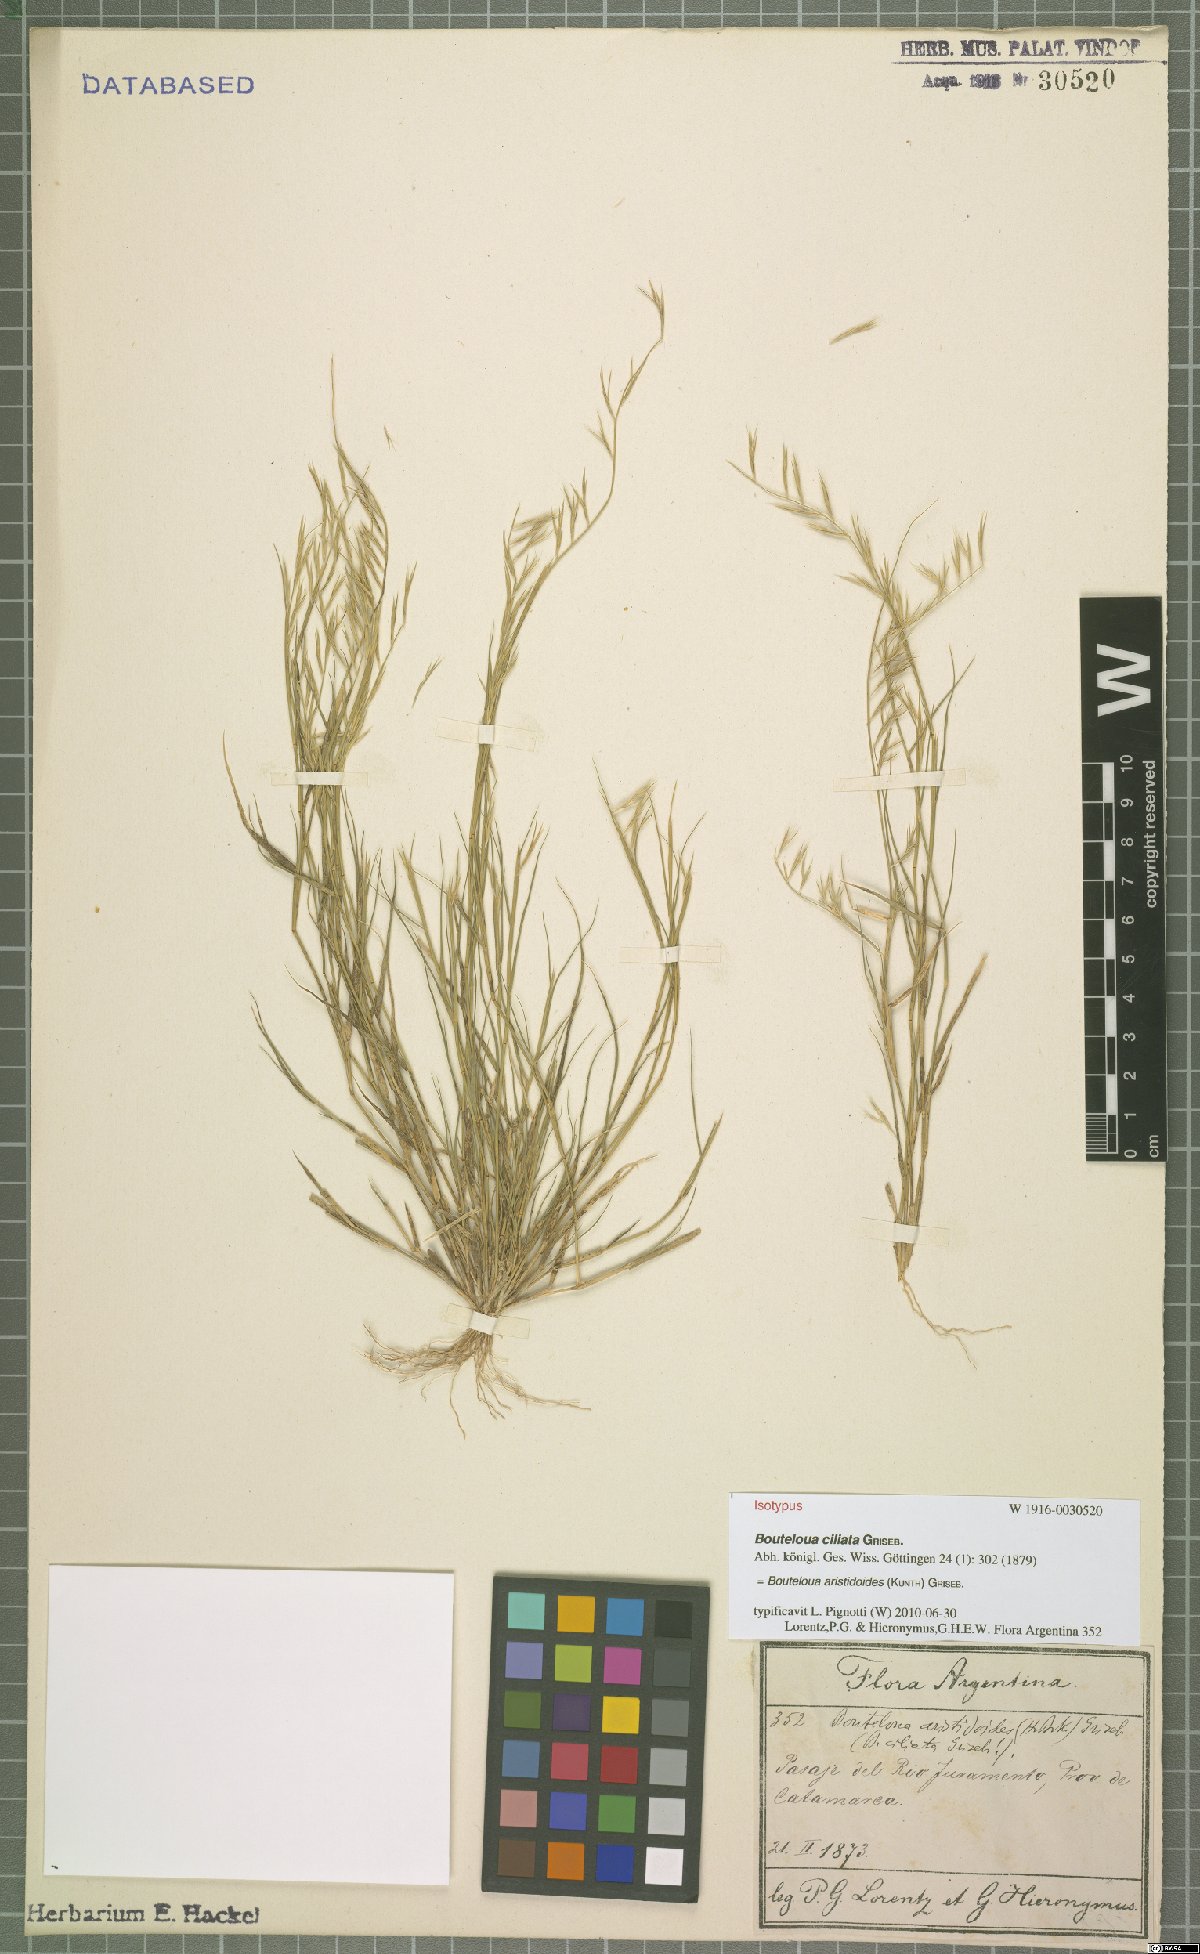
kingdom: Plantae
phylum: Tracheophyta
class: Liliopsida
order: Poales
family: Poaceae
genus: Bouteloua
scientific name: Bouteloua aristidoides
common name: Needle grama
